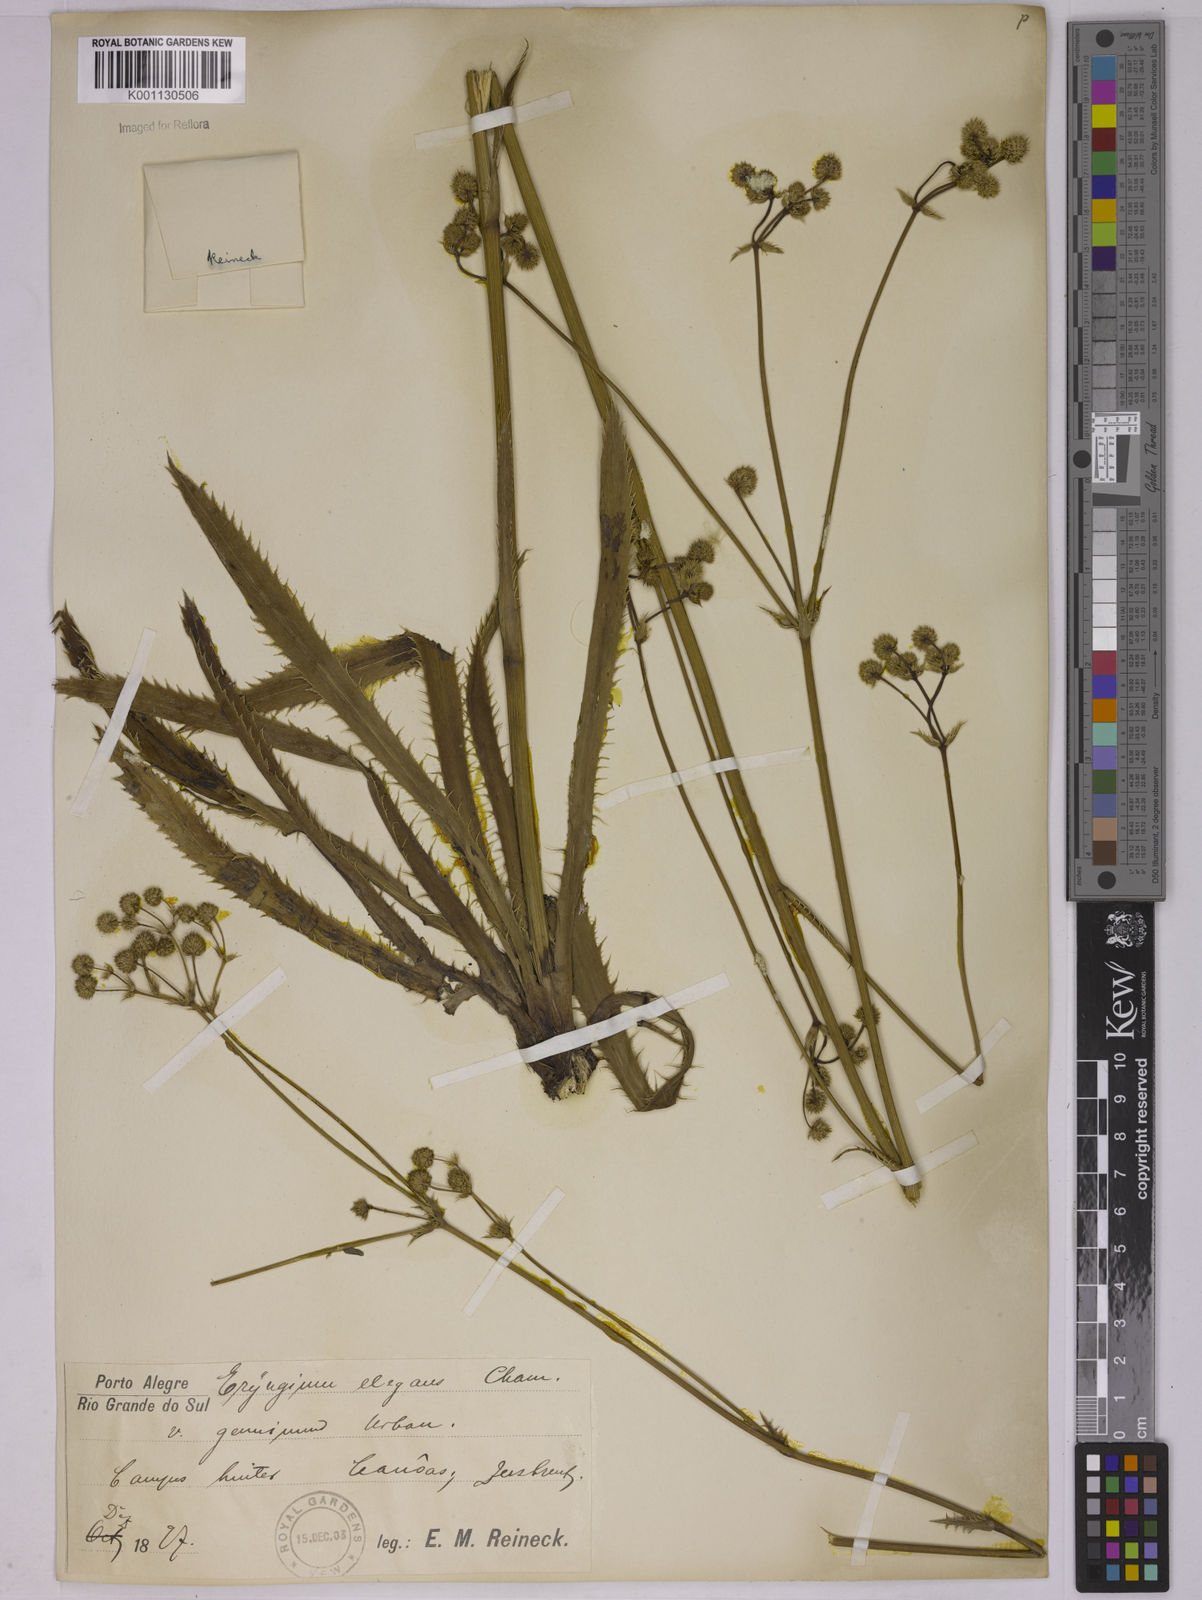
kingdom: Plantae
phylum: Tracheophyta
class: Magnoliopsida
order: Apiales
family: Apiaceae
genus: Eryngium
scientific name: Eryngium elegans
